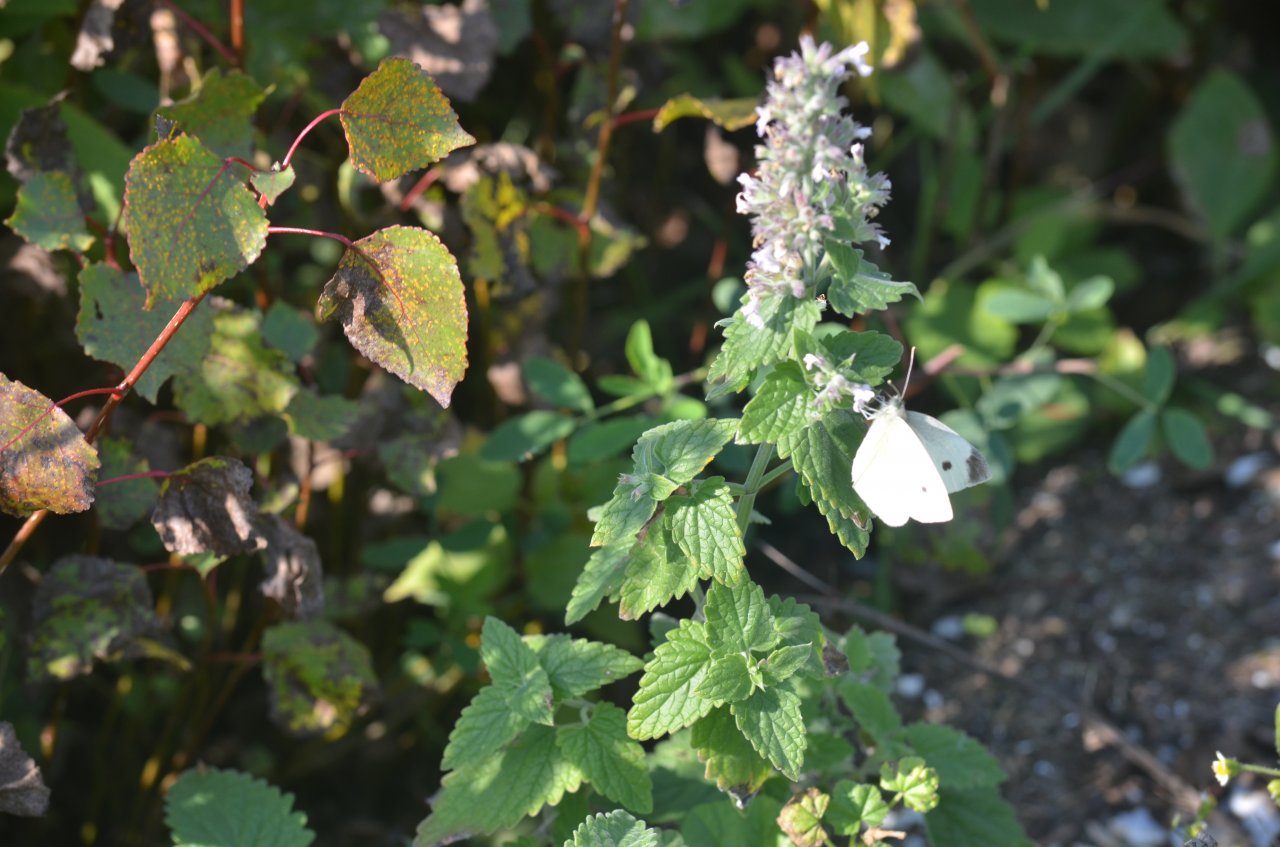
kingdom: Animalia
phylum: Arthropoda
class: Insecta
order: Lepidoptera
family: Pieridae
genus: Pieris
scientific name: Pieris rapae
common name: Cabbage White
